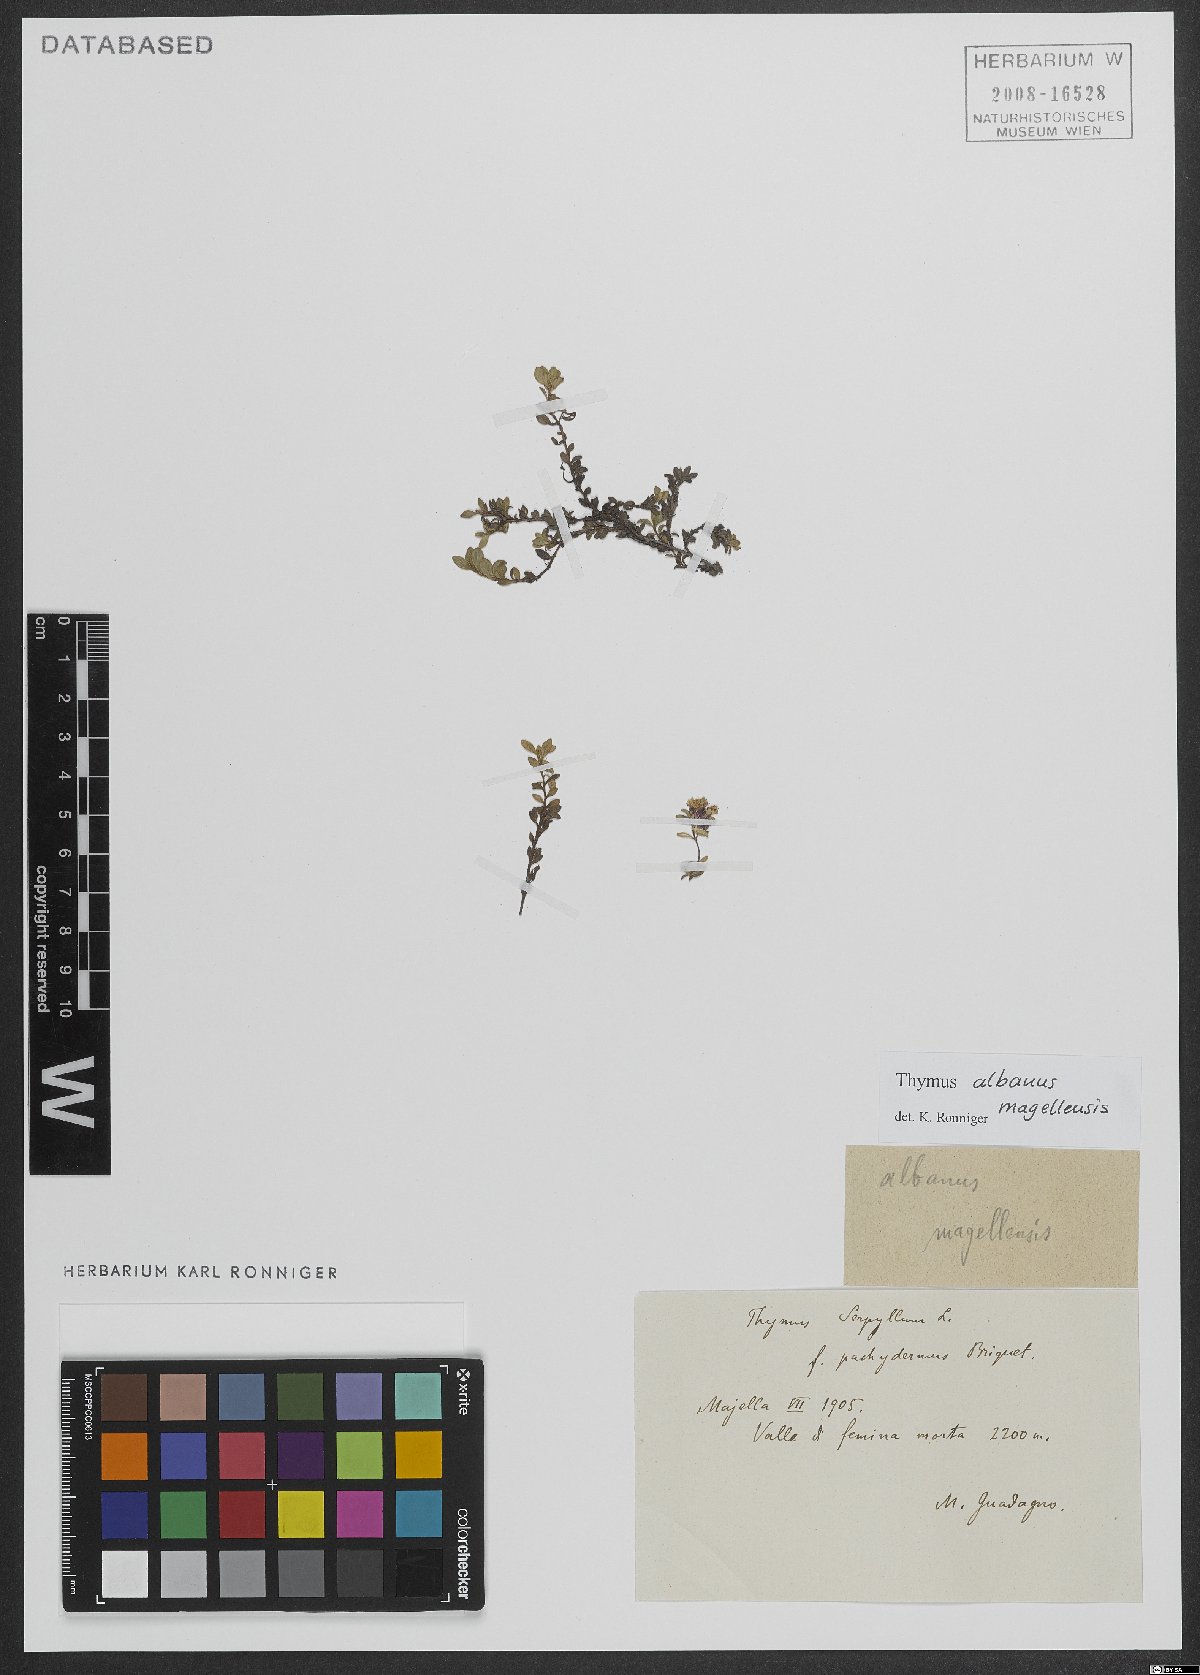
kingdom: Plantae
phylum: Tracheophyta
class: Magnoliopsida
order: Lamiales
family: Lamiaceae
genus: Thymus
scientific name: Thymus praecox
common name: Wild thyme
